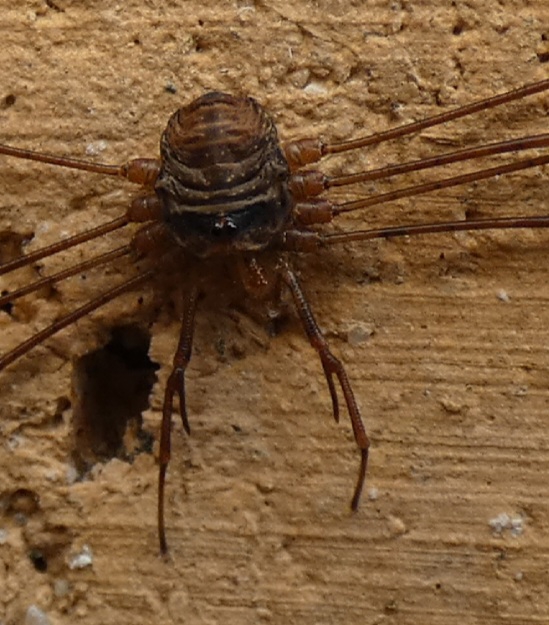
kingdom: Animalia
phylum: Arthropoda
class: Arachnida
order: Opiliones
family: Phalangiidae
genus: Dicranopalpus
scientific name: Dicranopalpus ramosus
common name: Gaffelmejer
